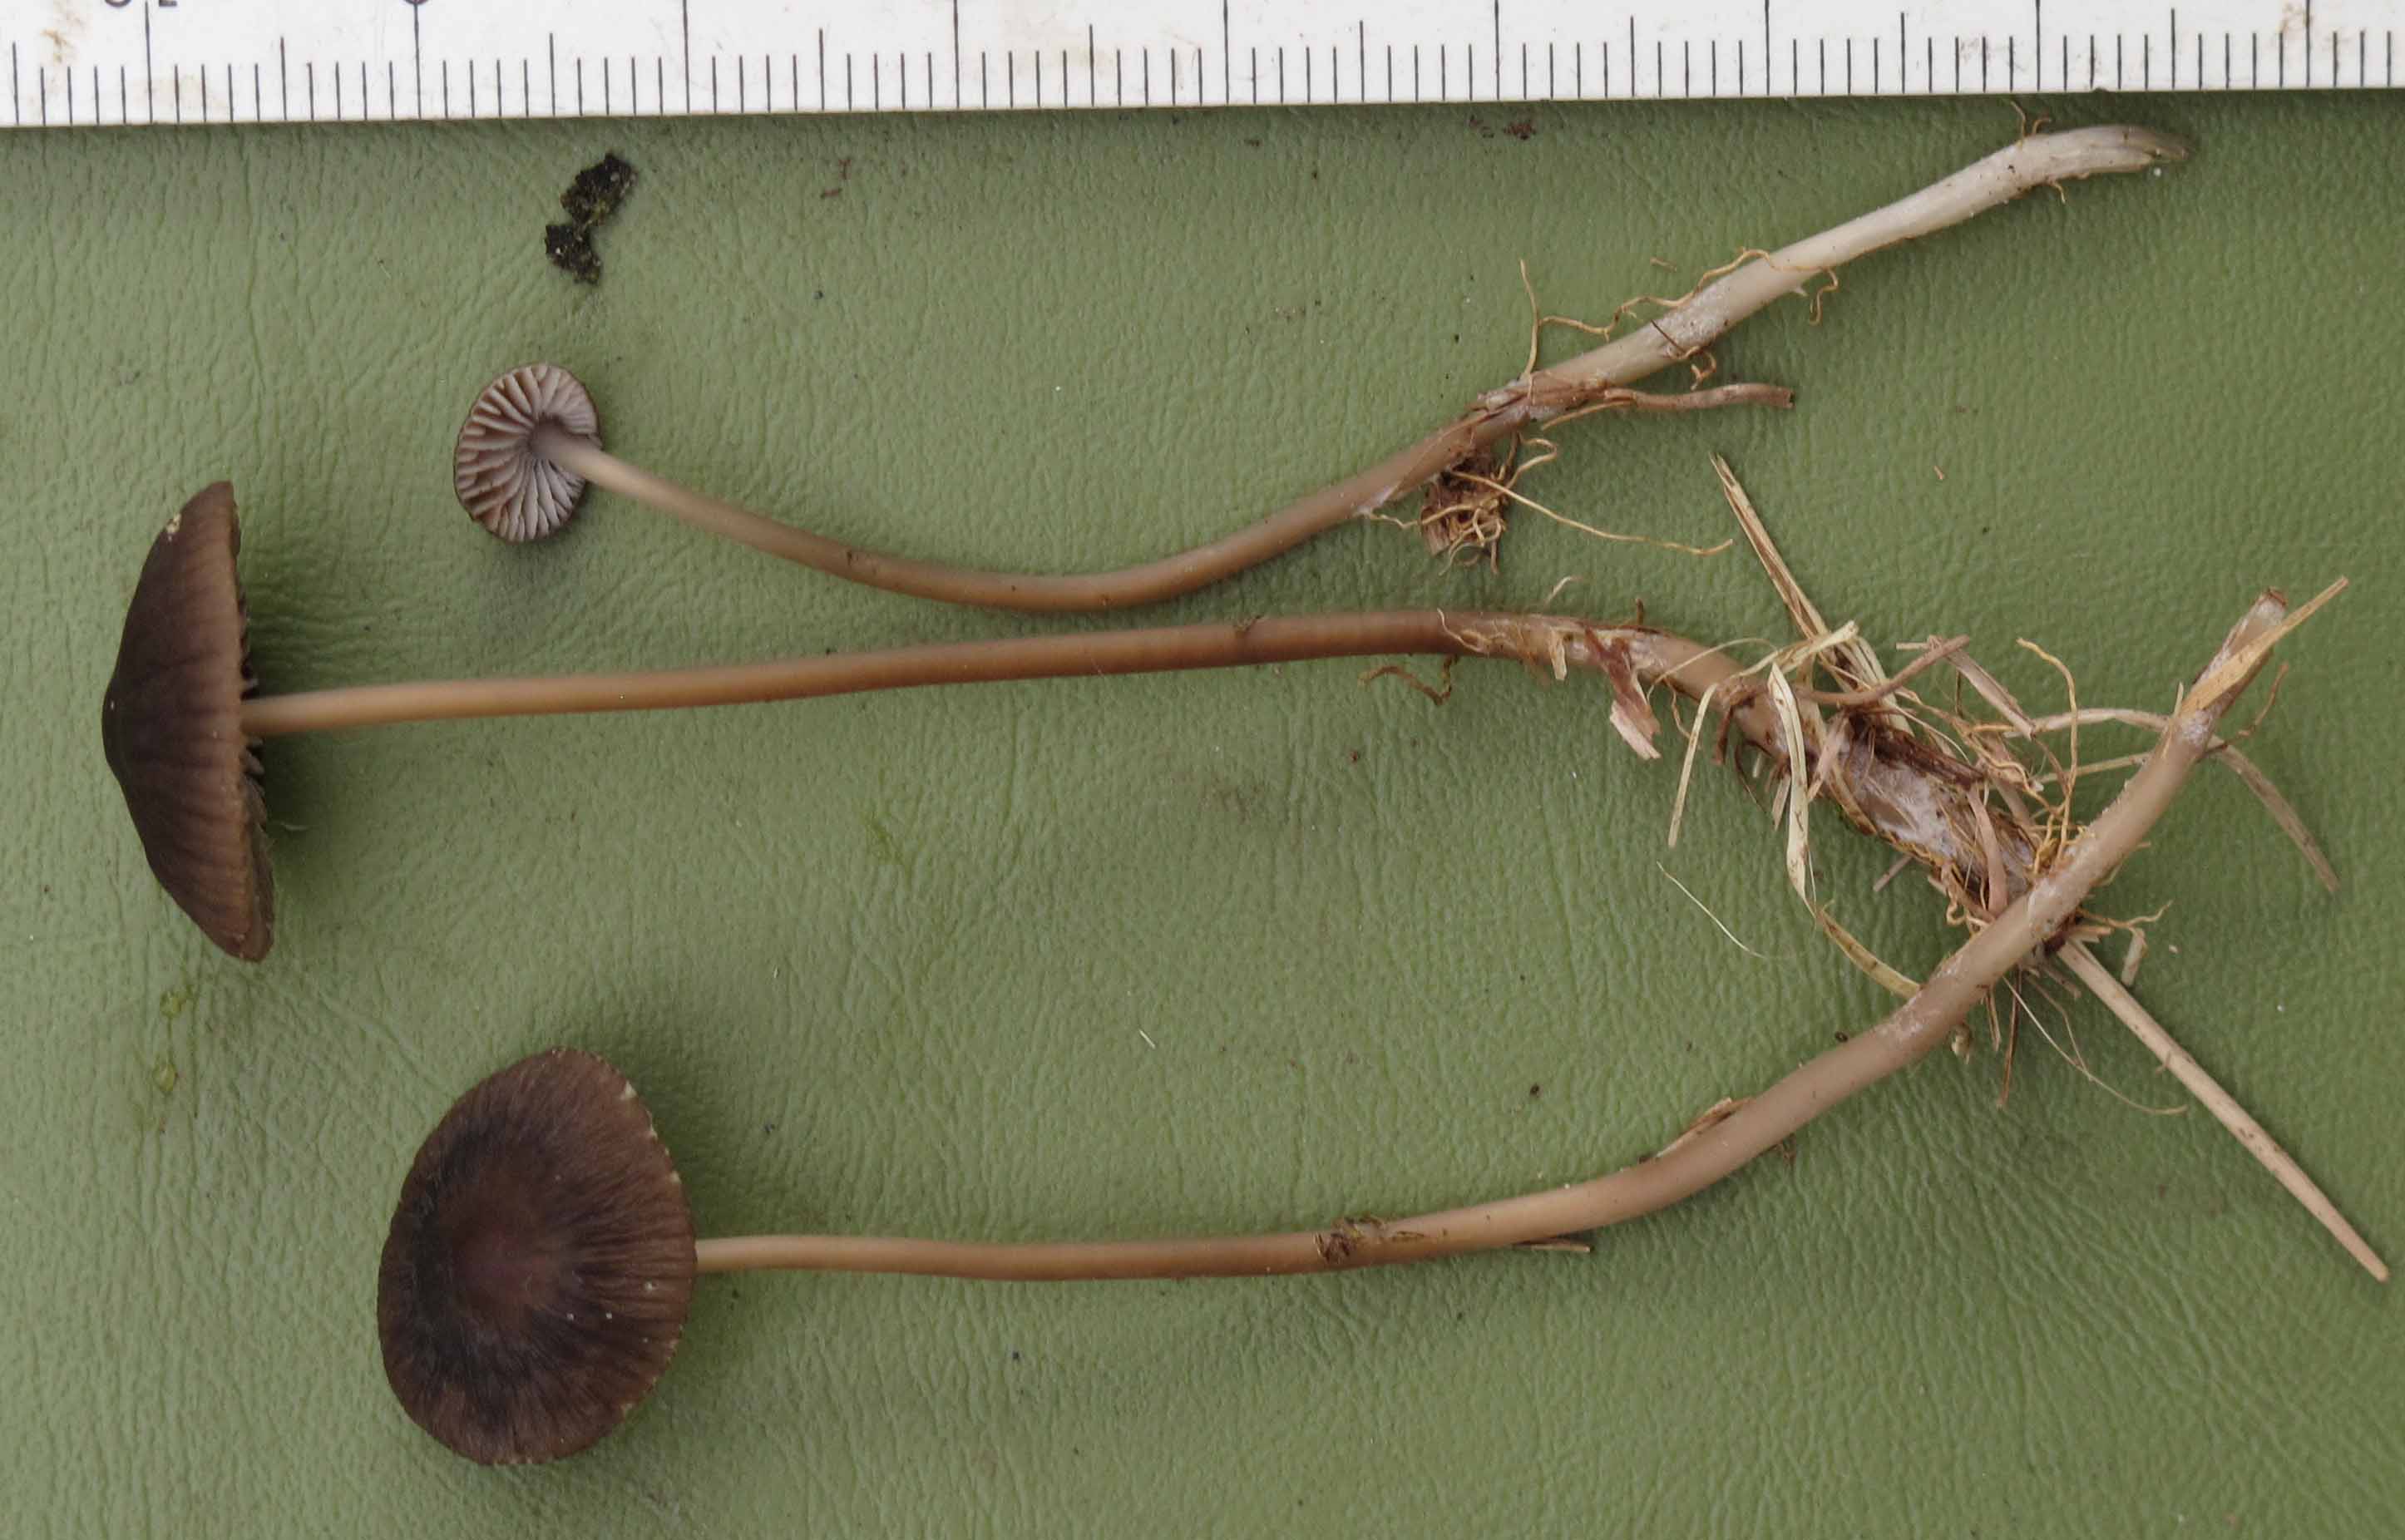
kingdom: Fungi
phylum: Basidiomycota
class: Agaricomycetes
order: Agaricales
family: Mycenaceae
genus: Mycena
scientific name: Mycena megaspora
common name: brusk-huesvamp
